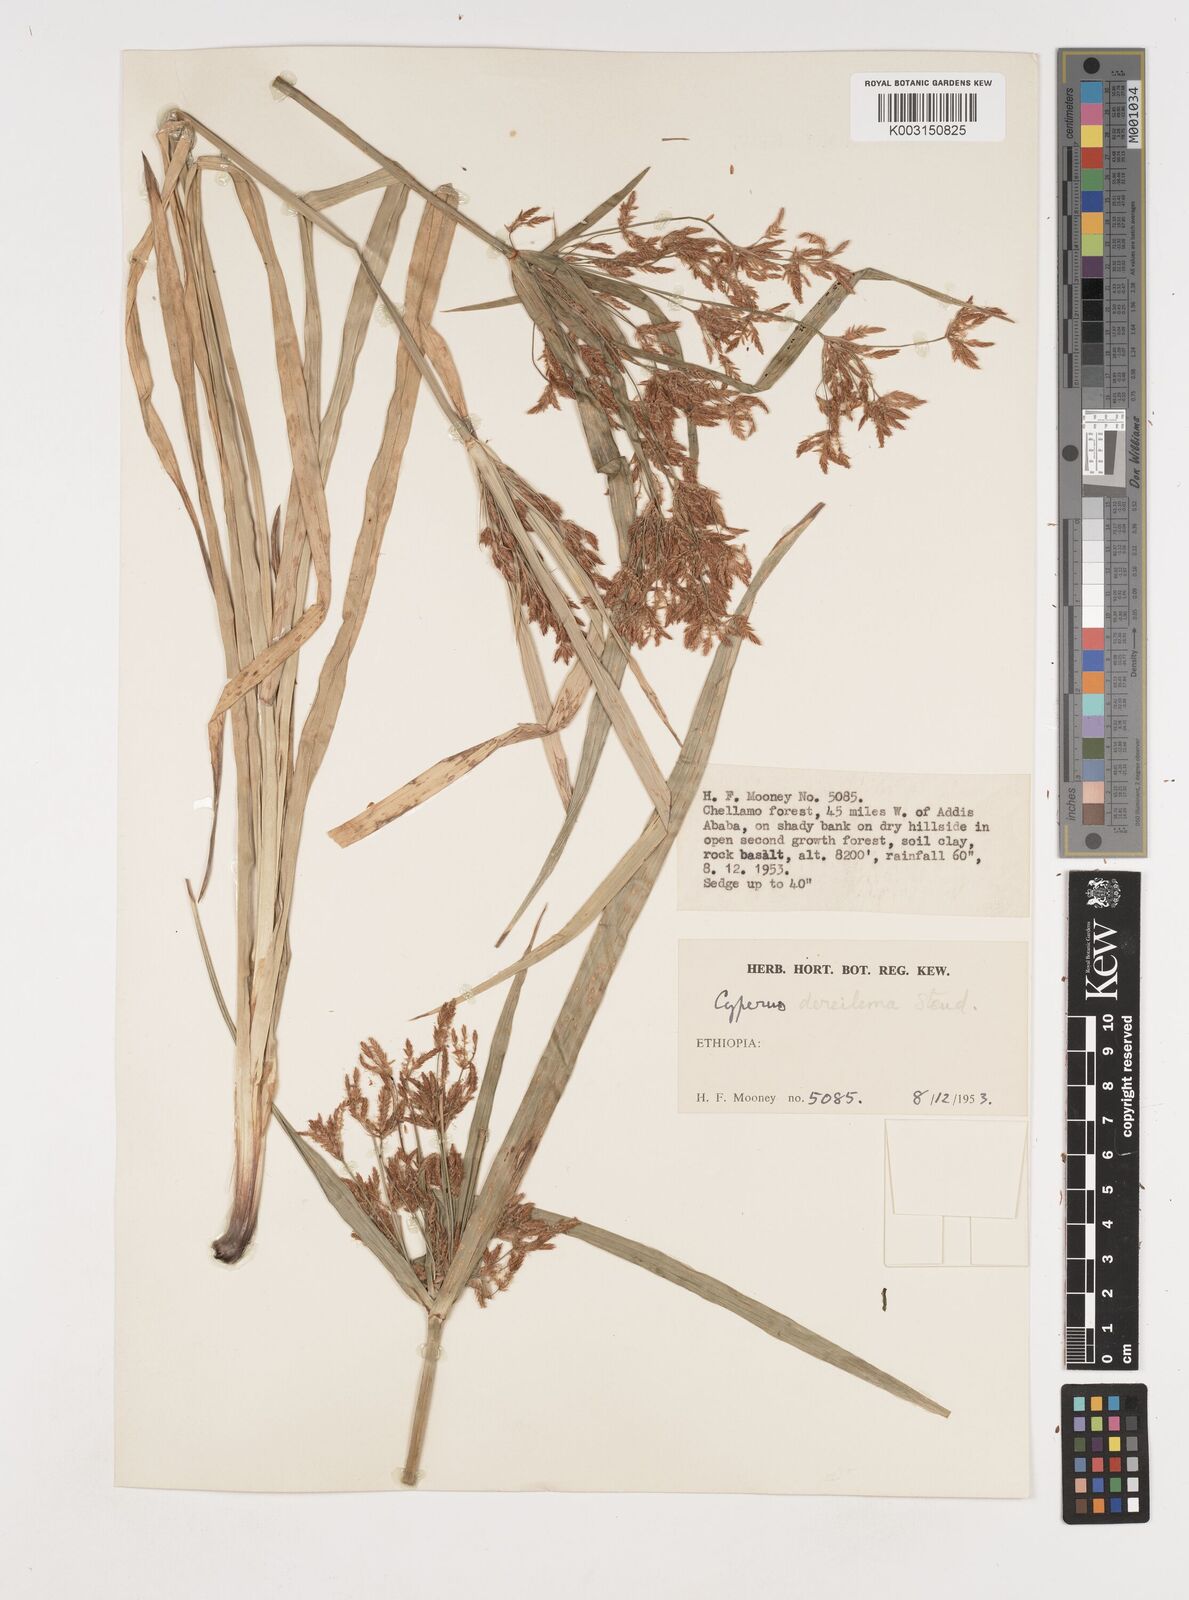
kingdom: Plantae
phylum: Tracheophyta
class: Liliopsida
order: Poales
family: Cyperaceae
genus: Cyperus
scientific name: Cyperus fischerianus
